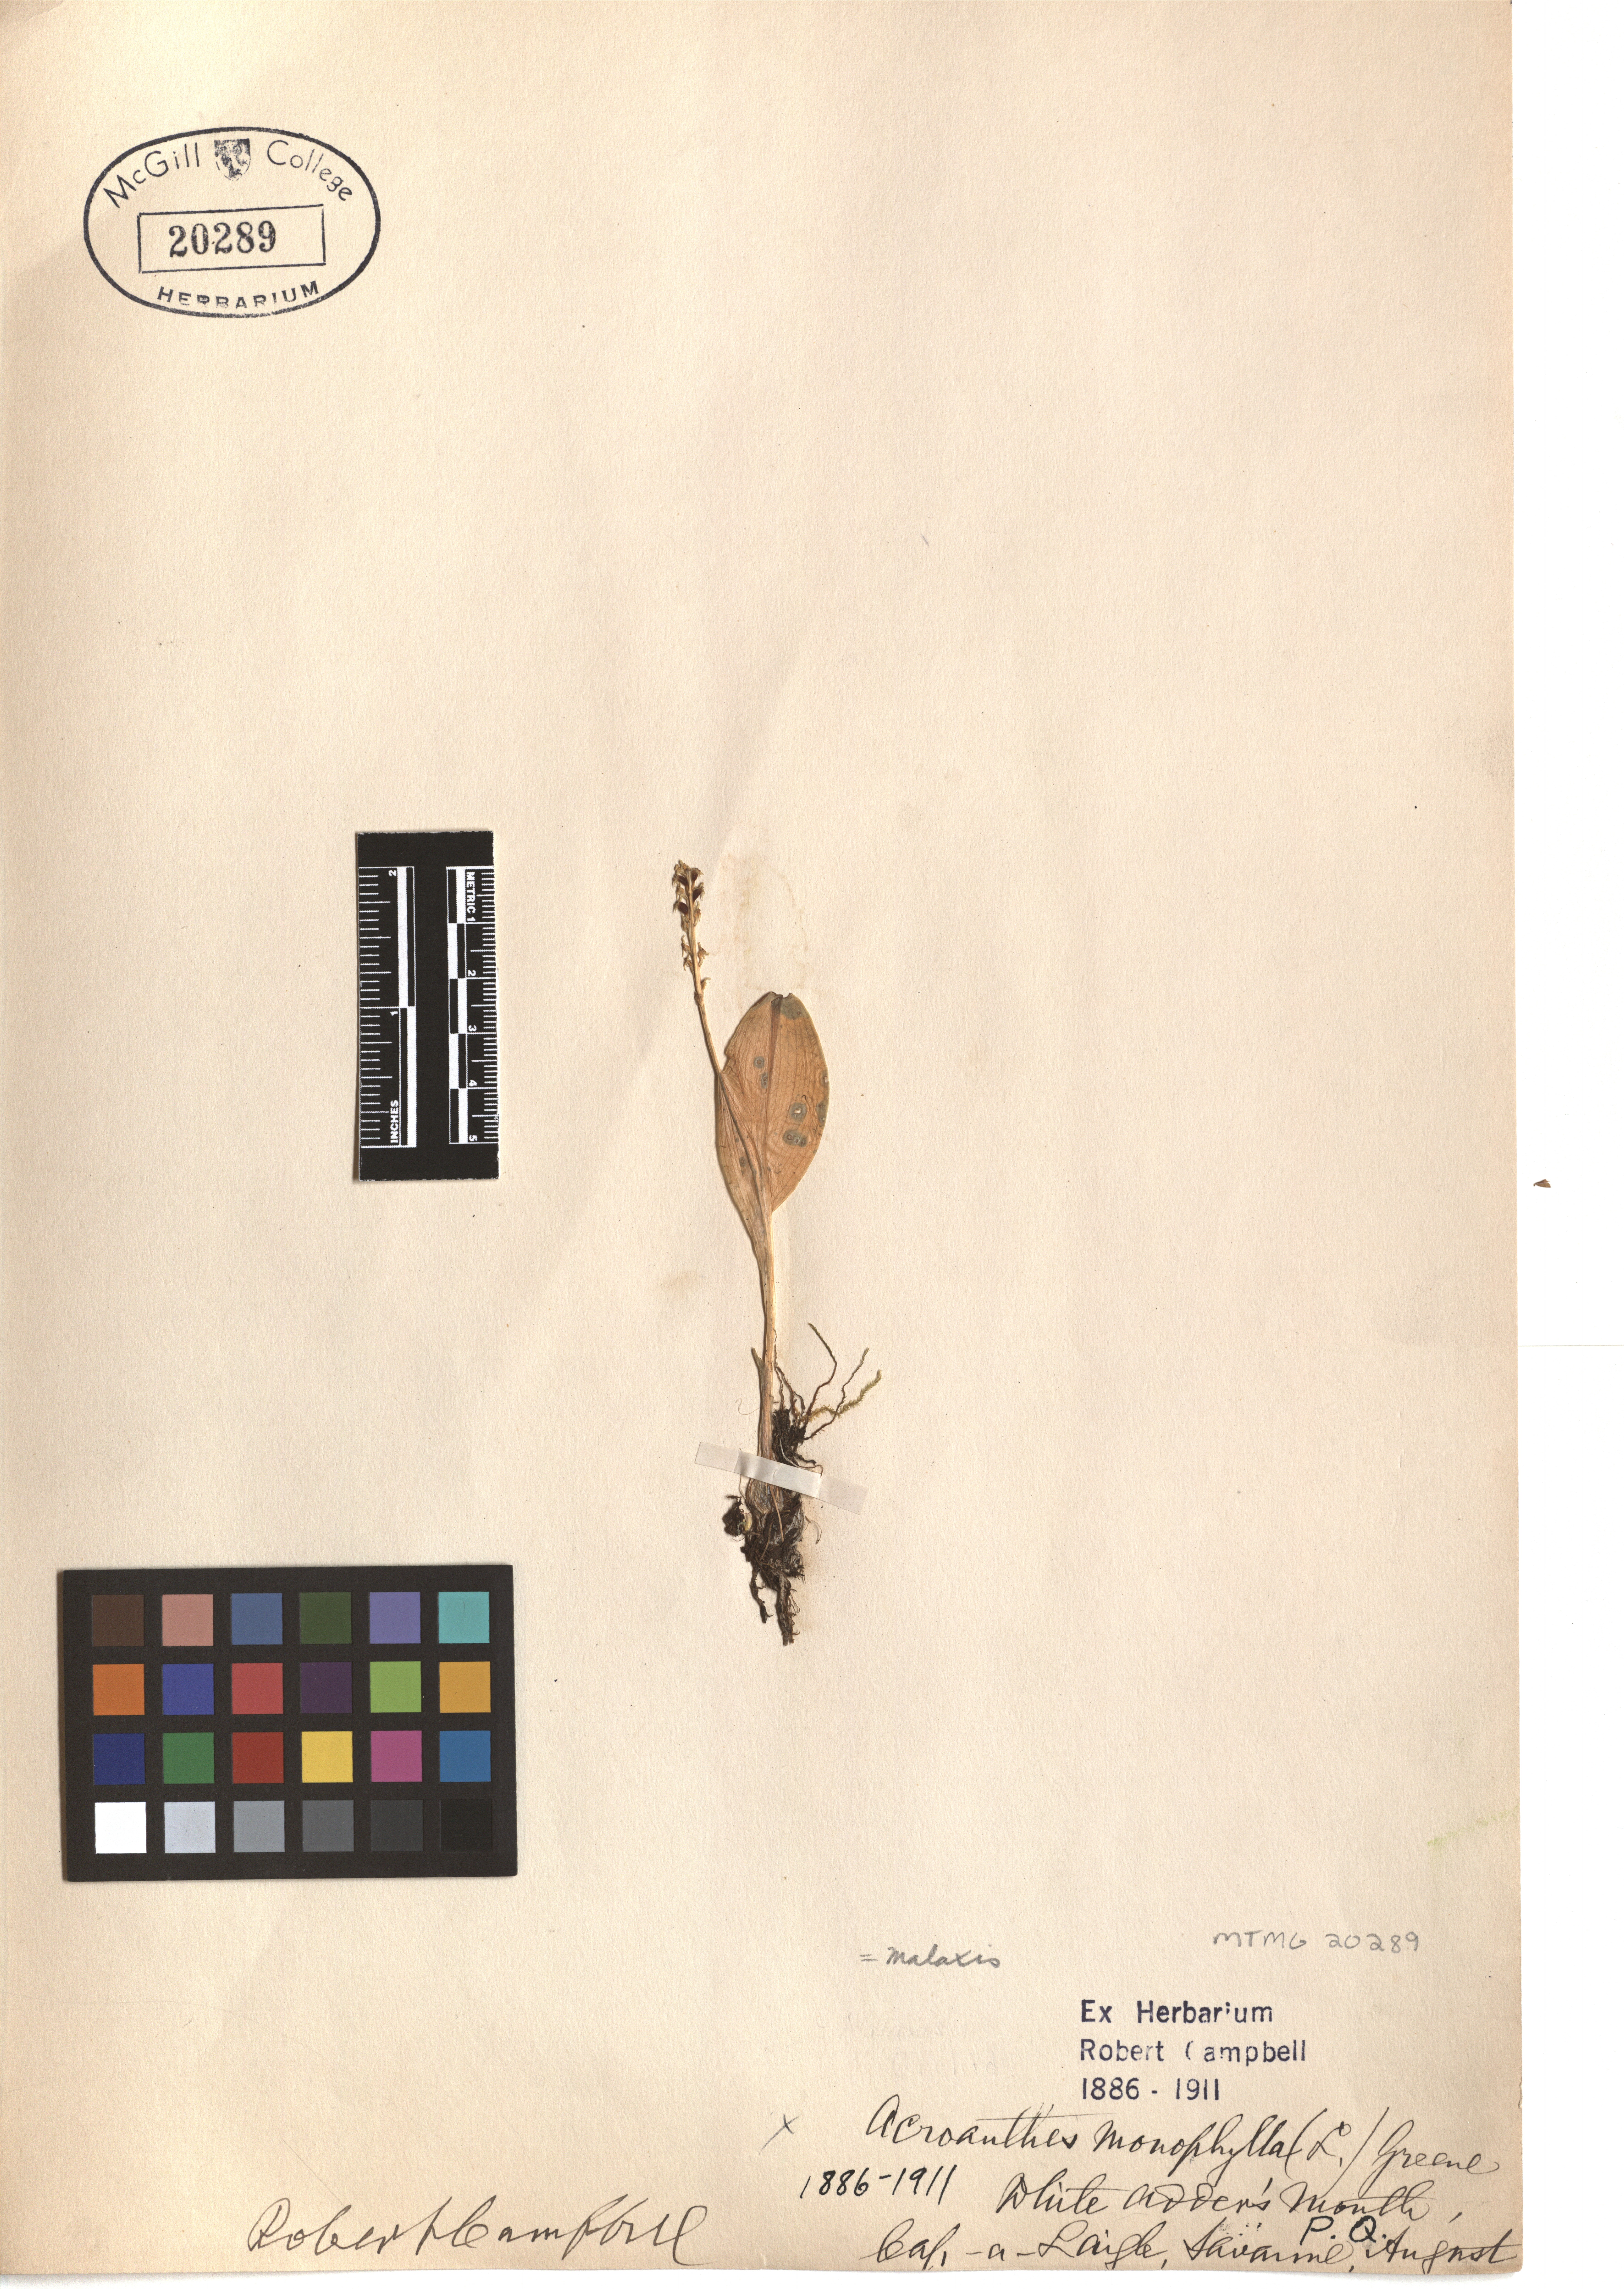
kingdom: Plantae
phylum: Tracheophyta
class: Liliopsida
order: Asparagales
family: Orchidaceae
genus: Malaxis
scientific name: Malaxis monophyllos
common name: White adder's-mouth
